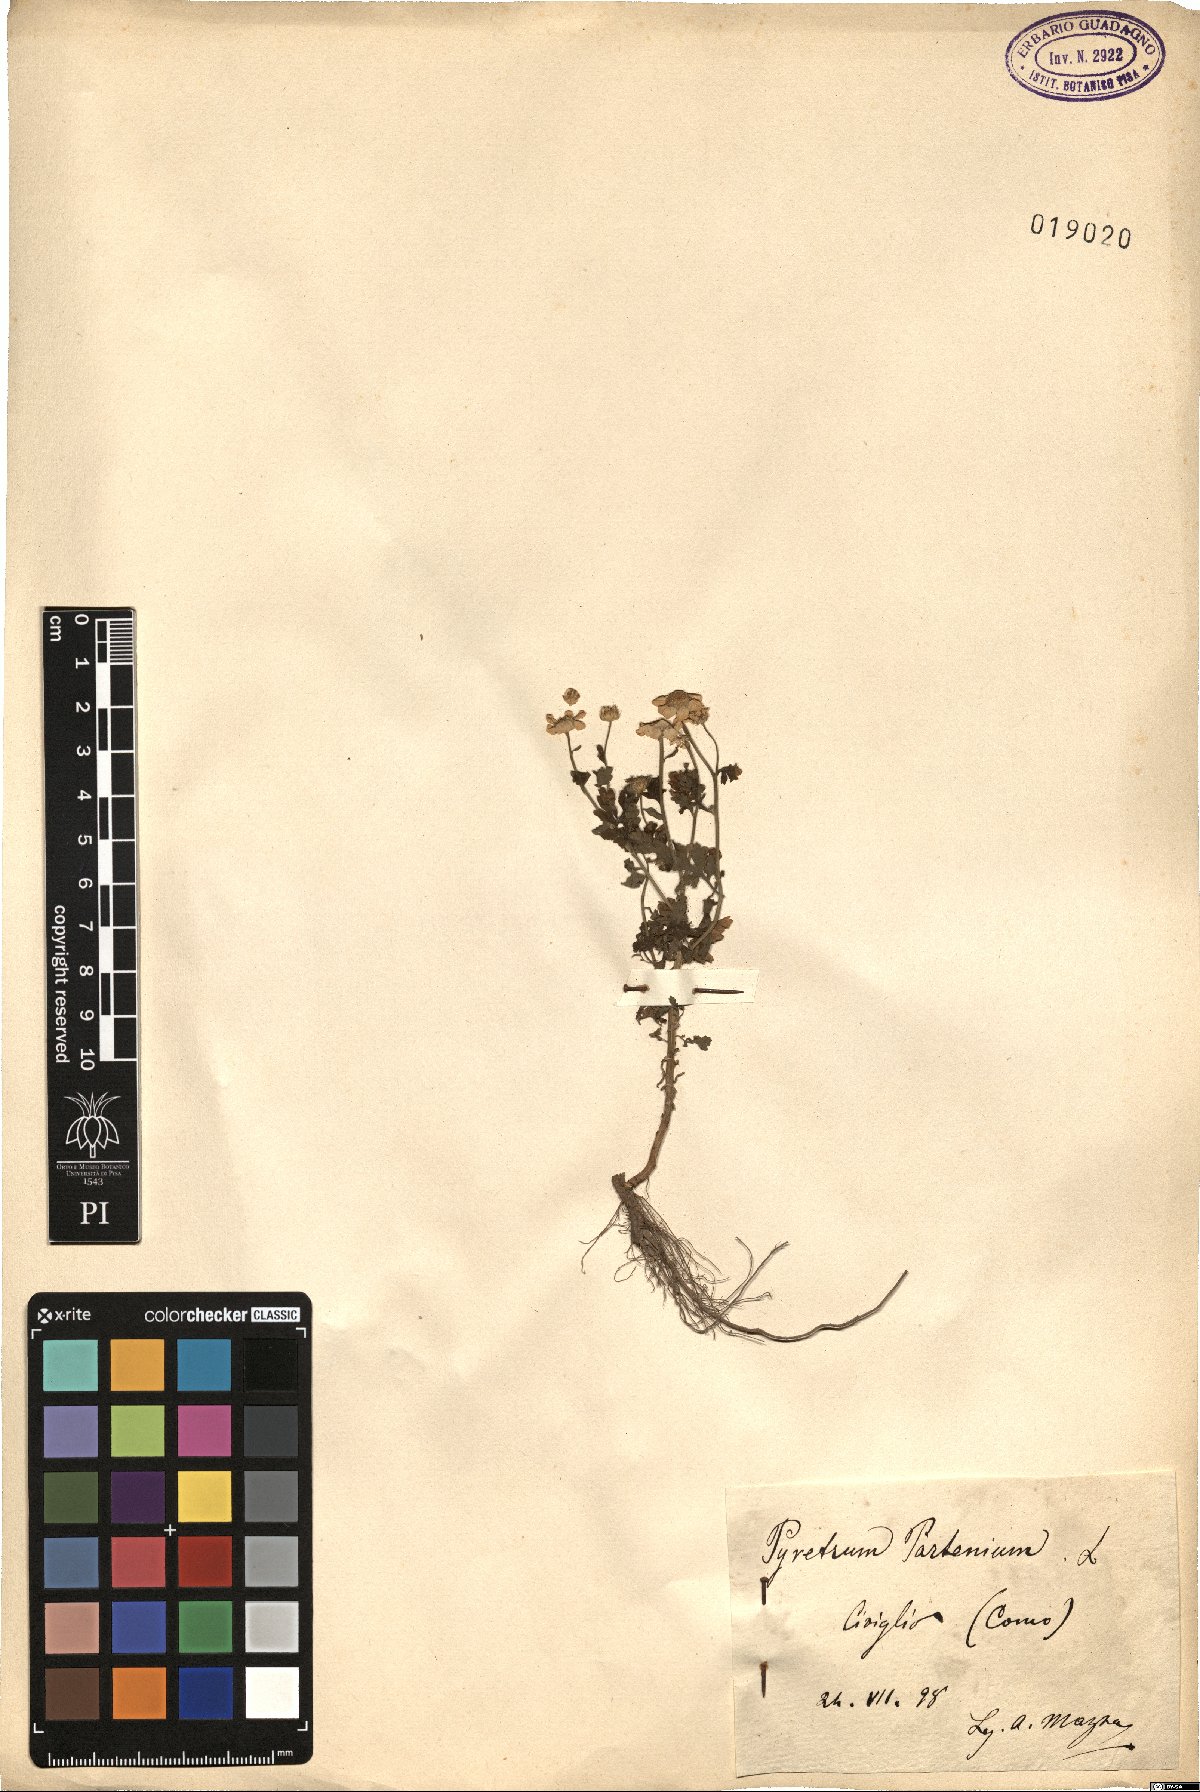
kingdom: Plantae
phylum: Tracheophyta
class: Magnoliopsida
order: Asterales
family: Asteraceae
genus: Tanacetum
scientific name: Tanacetum parthenium
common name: Feverfew
